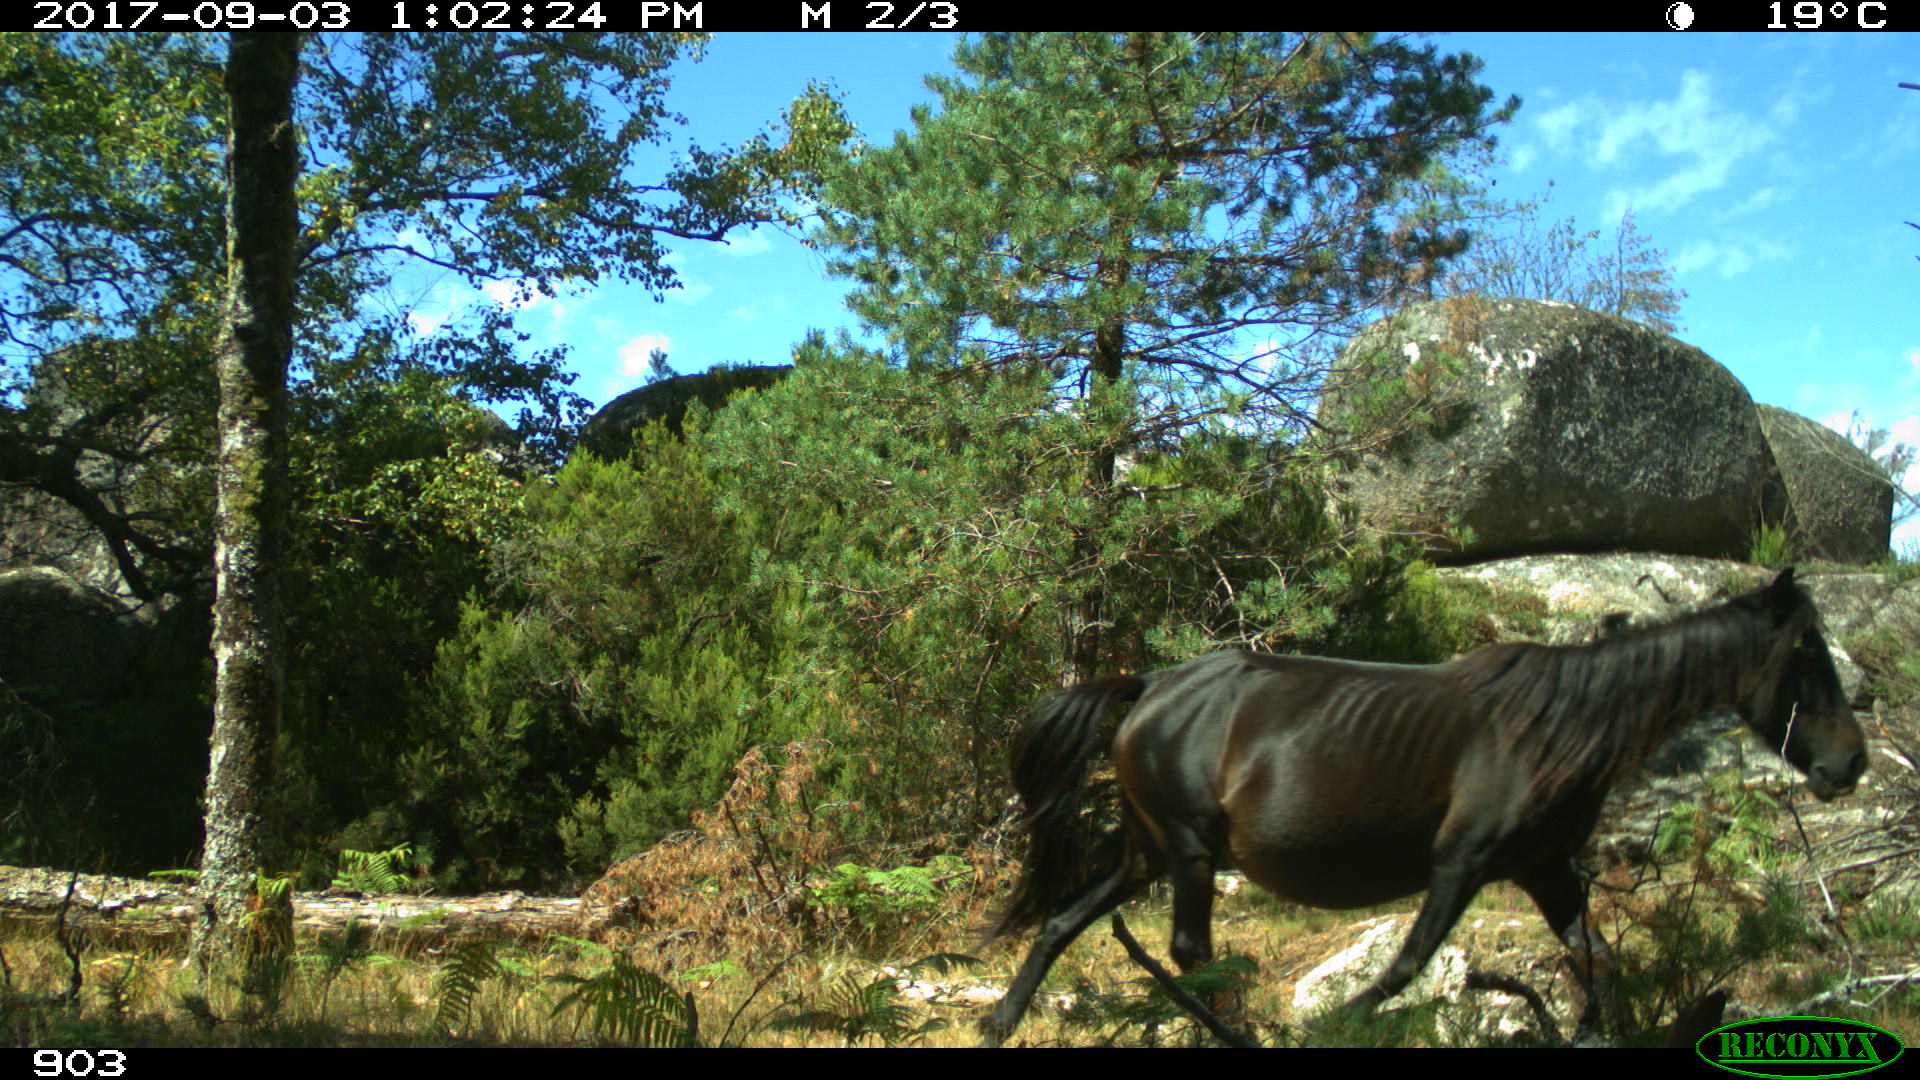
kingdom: Animalia
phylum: Chordata
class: Mammalia
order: Perissodactyla
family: Equidae
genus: Equus
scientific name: Equus caballus
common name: Horse
